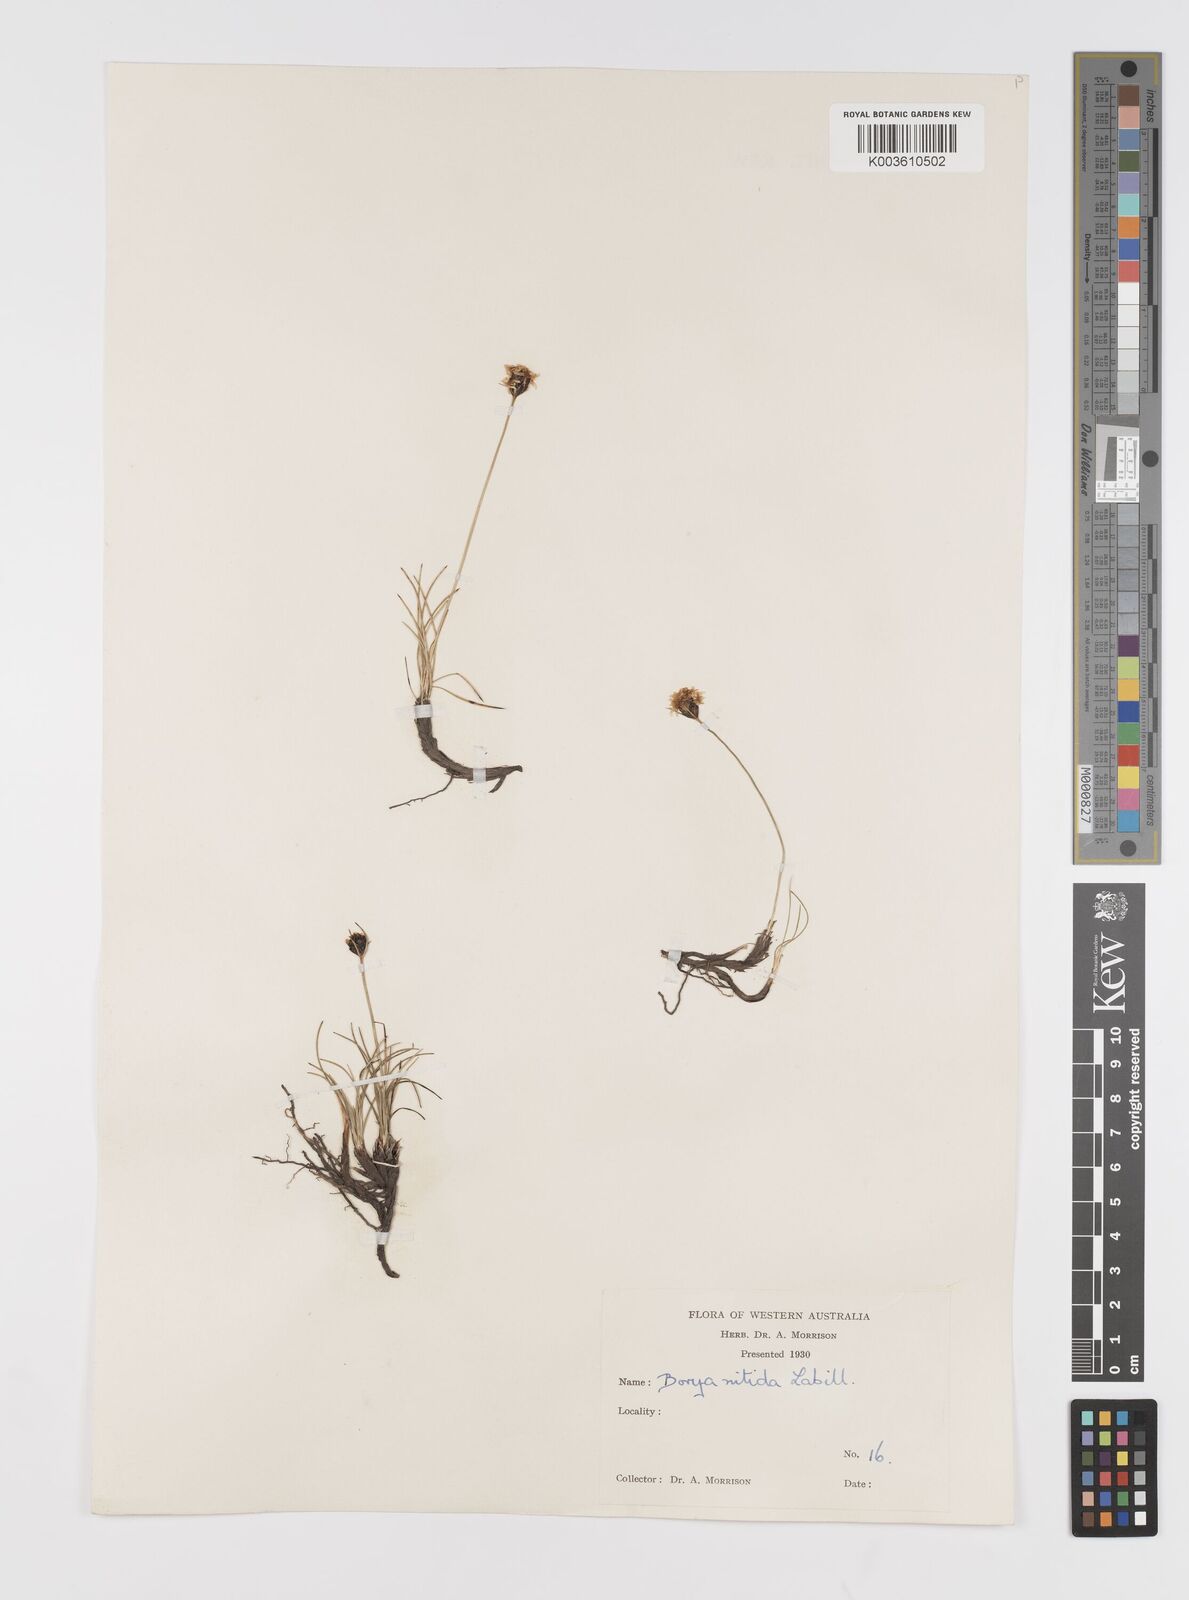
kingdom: Plantae
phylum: Tracheophyta
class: Liliopsida
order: Asparagales
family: Boryaceae
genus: Borya
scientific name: Borya nitida
